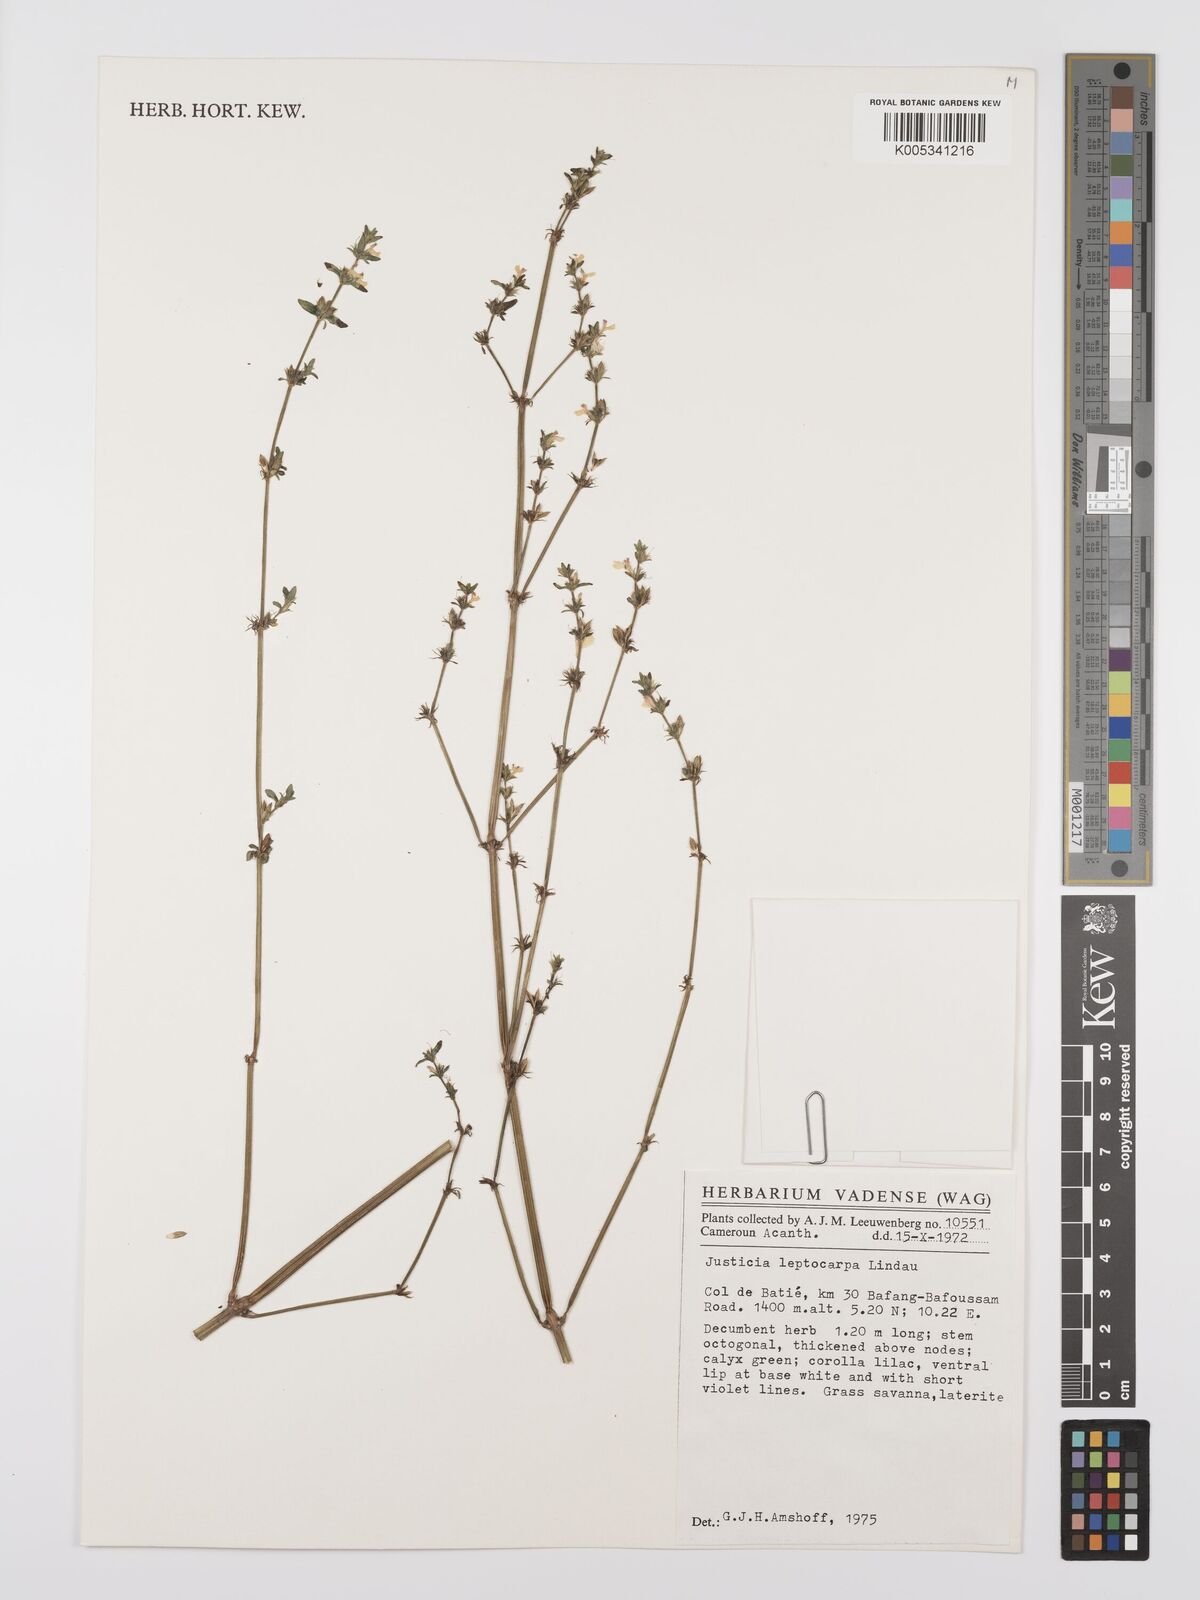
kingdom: Plantae
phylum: Tracheophyta
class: Magnoliopsida
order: Lamiales
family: Acanthaceae
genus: Justicia
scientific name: Justicia unyorensis
